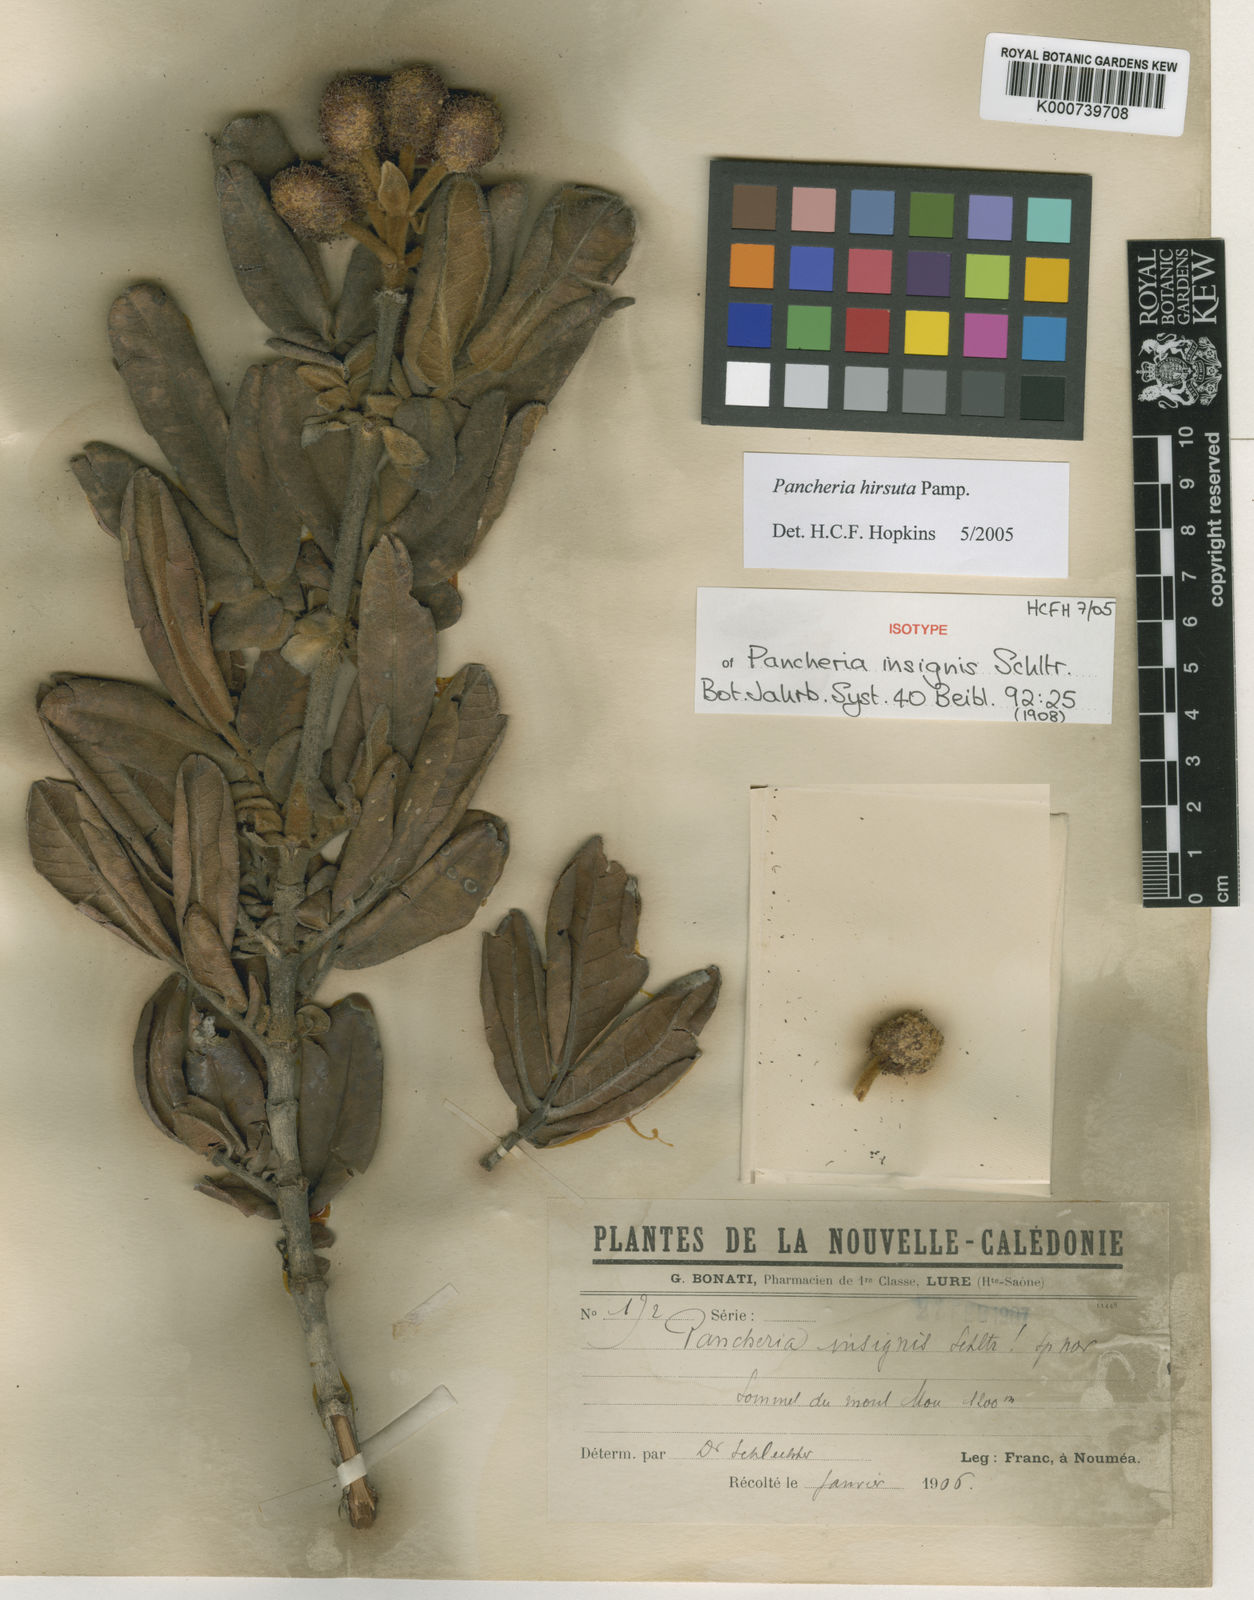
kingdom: Plantae
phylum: Tracheophyta
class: Magnoliopsida
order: Oxalidales
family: Cunoniaceae
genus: Pancheria
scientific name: Pancheria hirsuta
